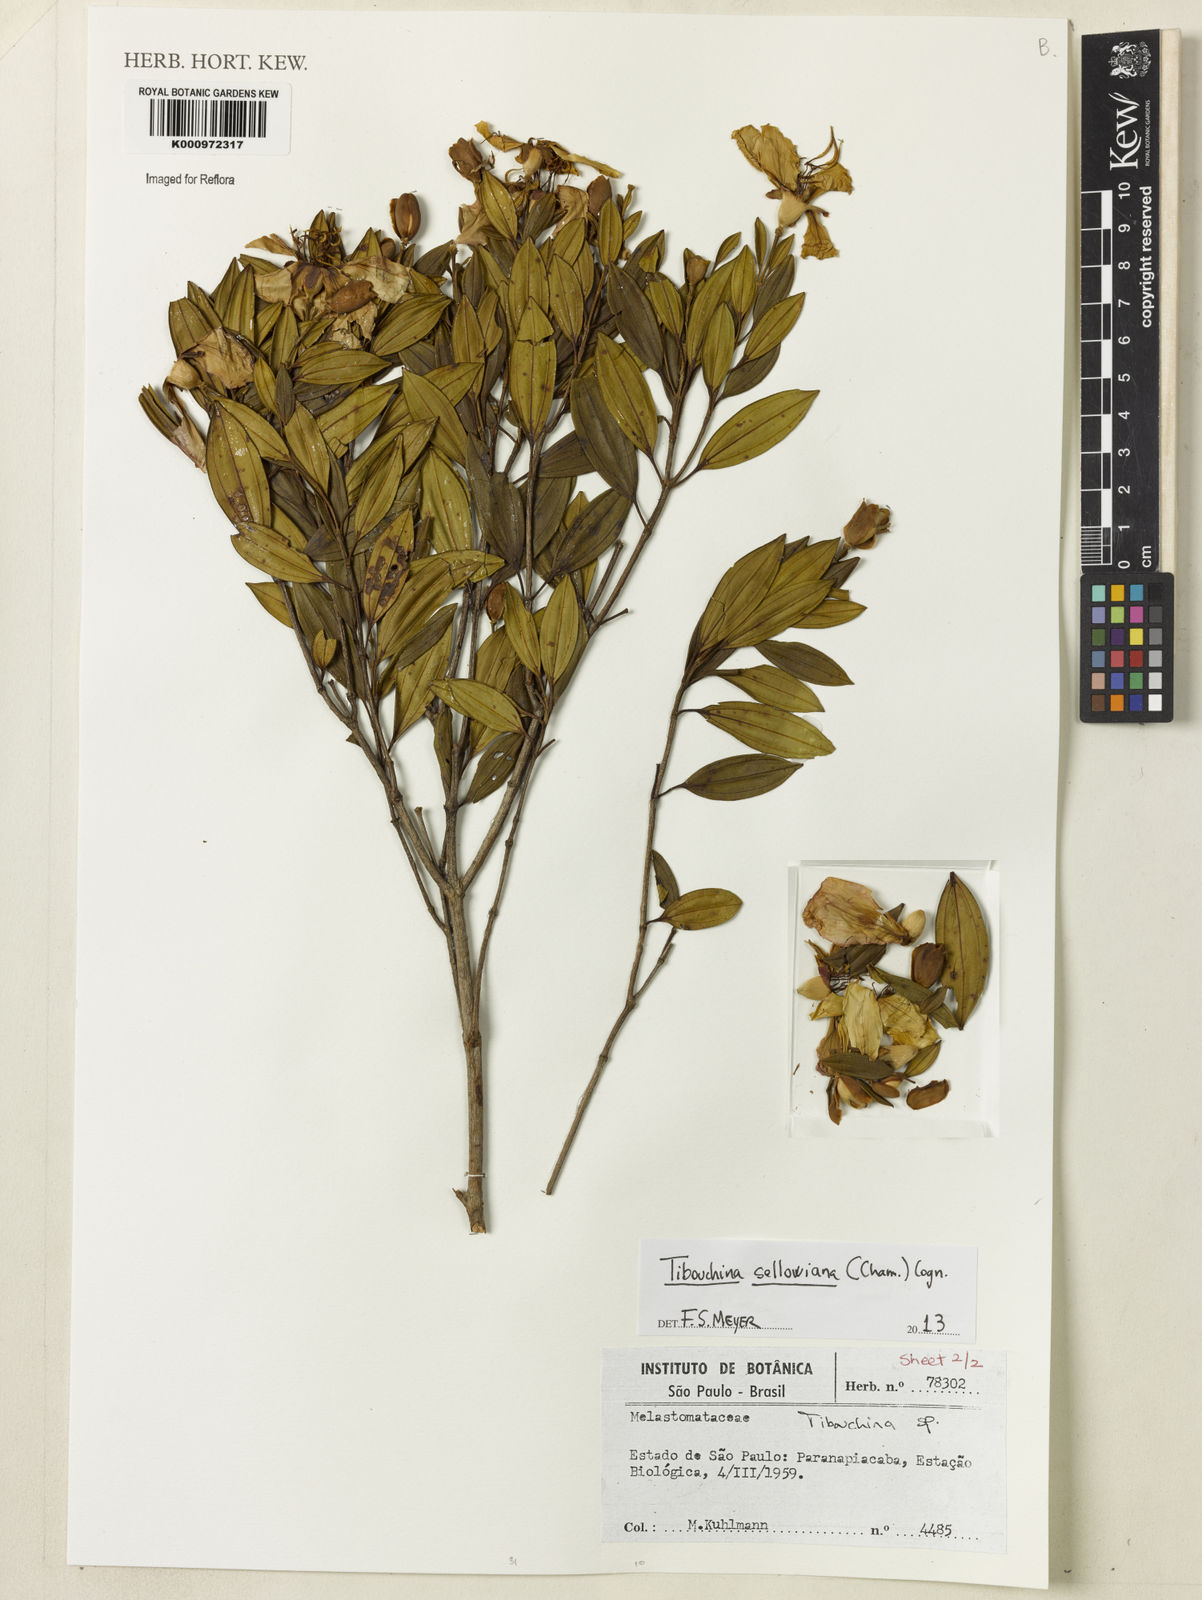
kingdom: Plantae
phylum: Tracheophyta
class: Magnoliopsida
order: Myrtales
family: Melastomataceae
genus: Pleroma
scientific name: Pleroma sellowianum
